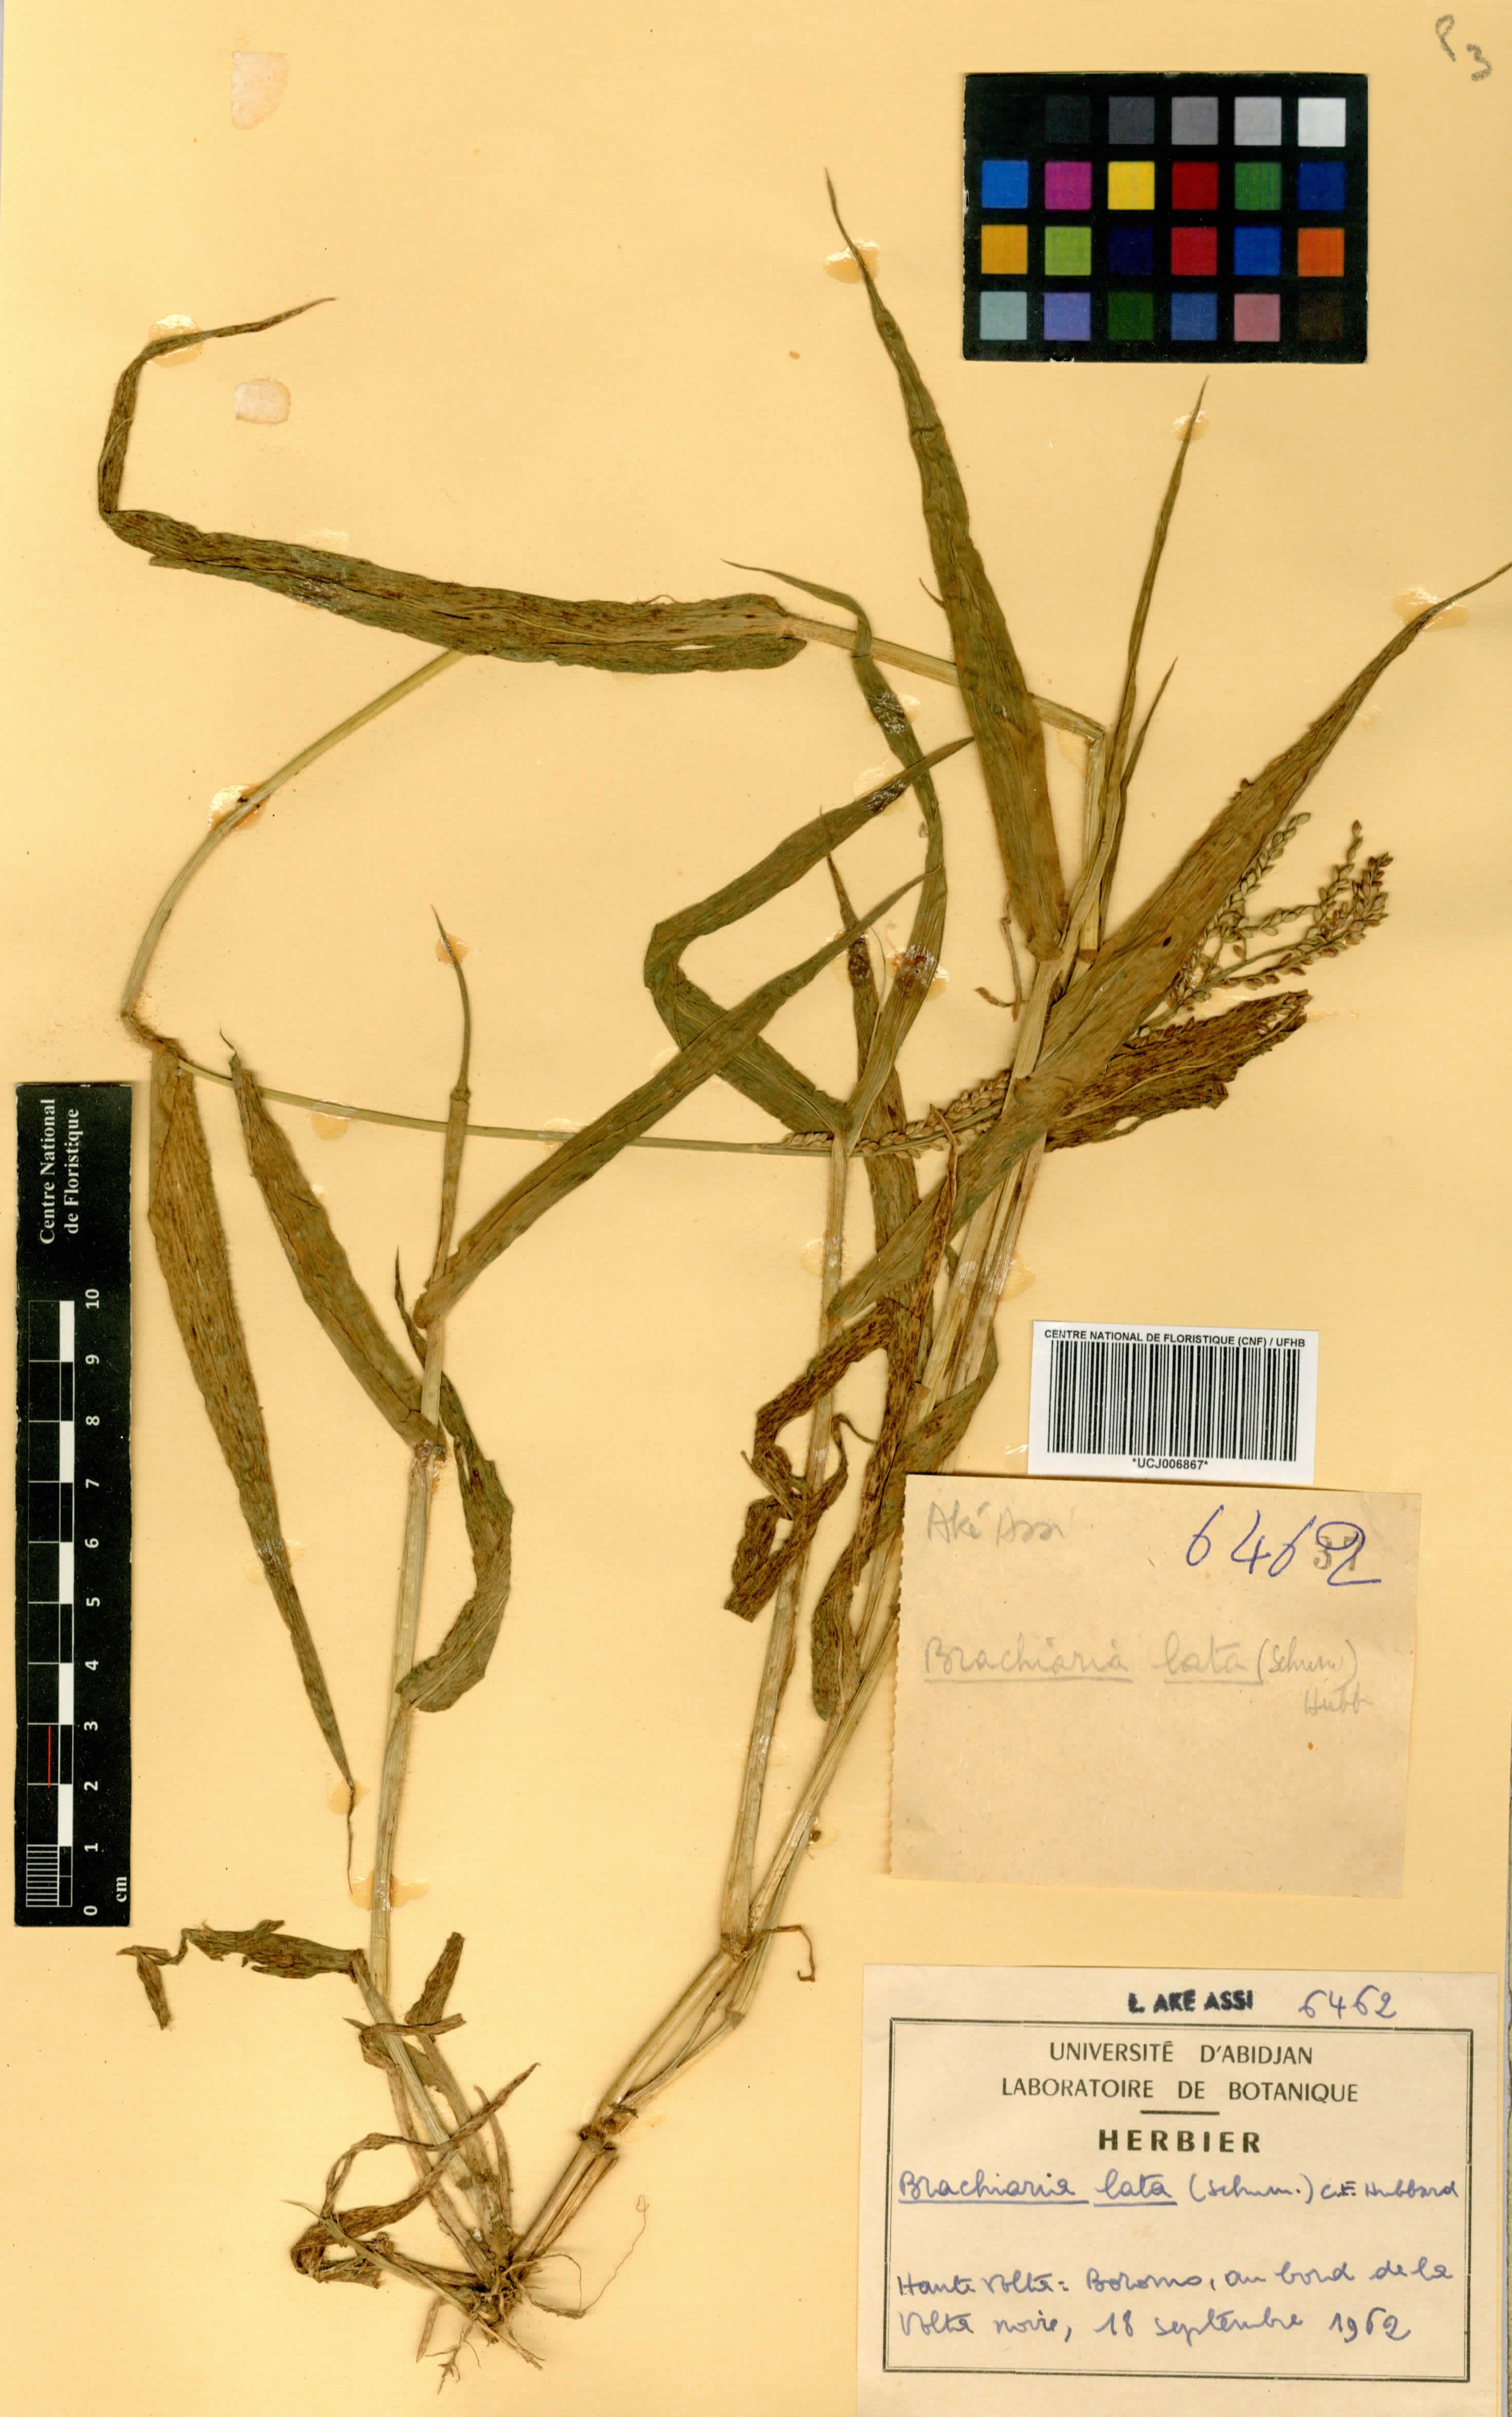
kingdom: Plantae
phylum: Tracheophyta
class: Liliopsida
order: Poales
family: Poaceae
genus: Urochloa
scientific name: Urochloa lata
